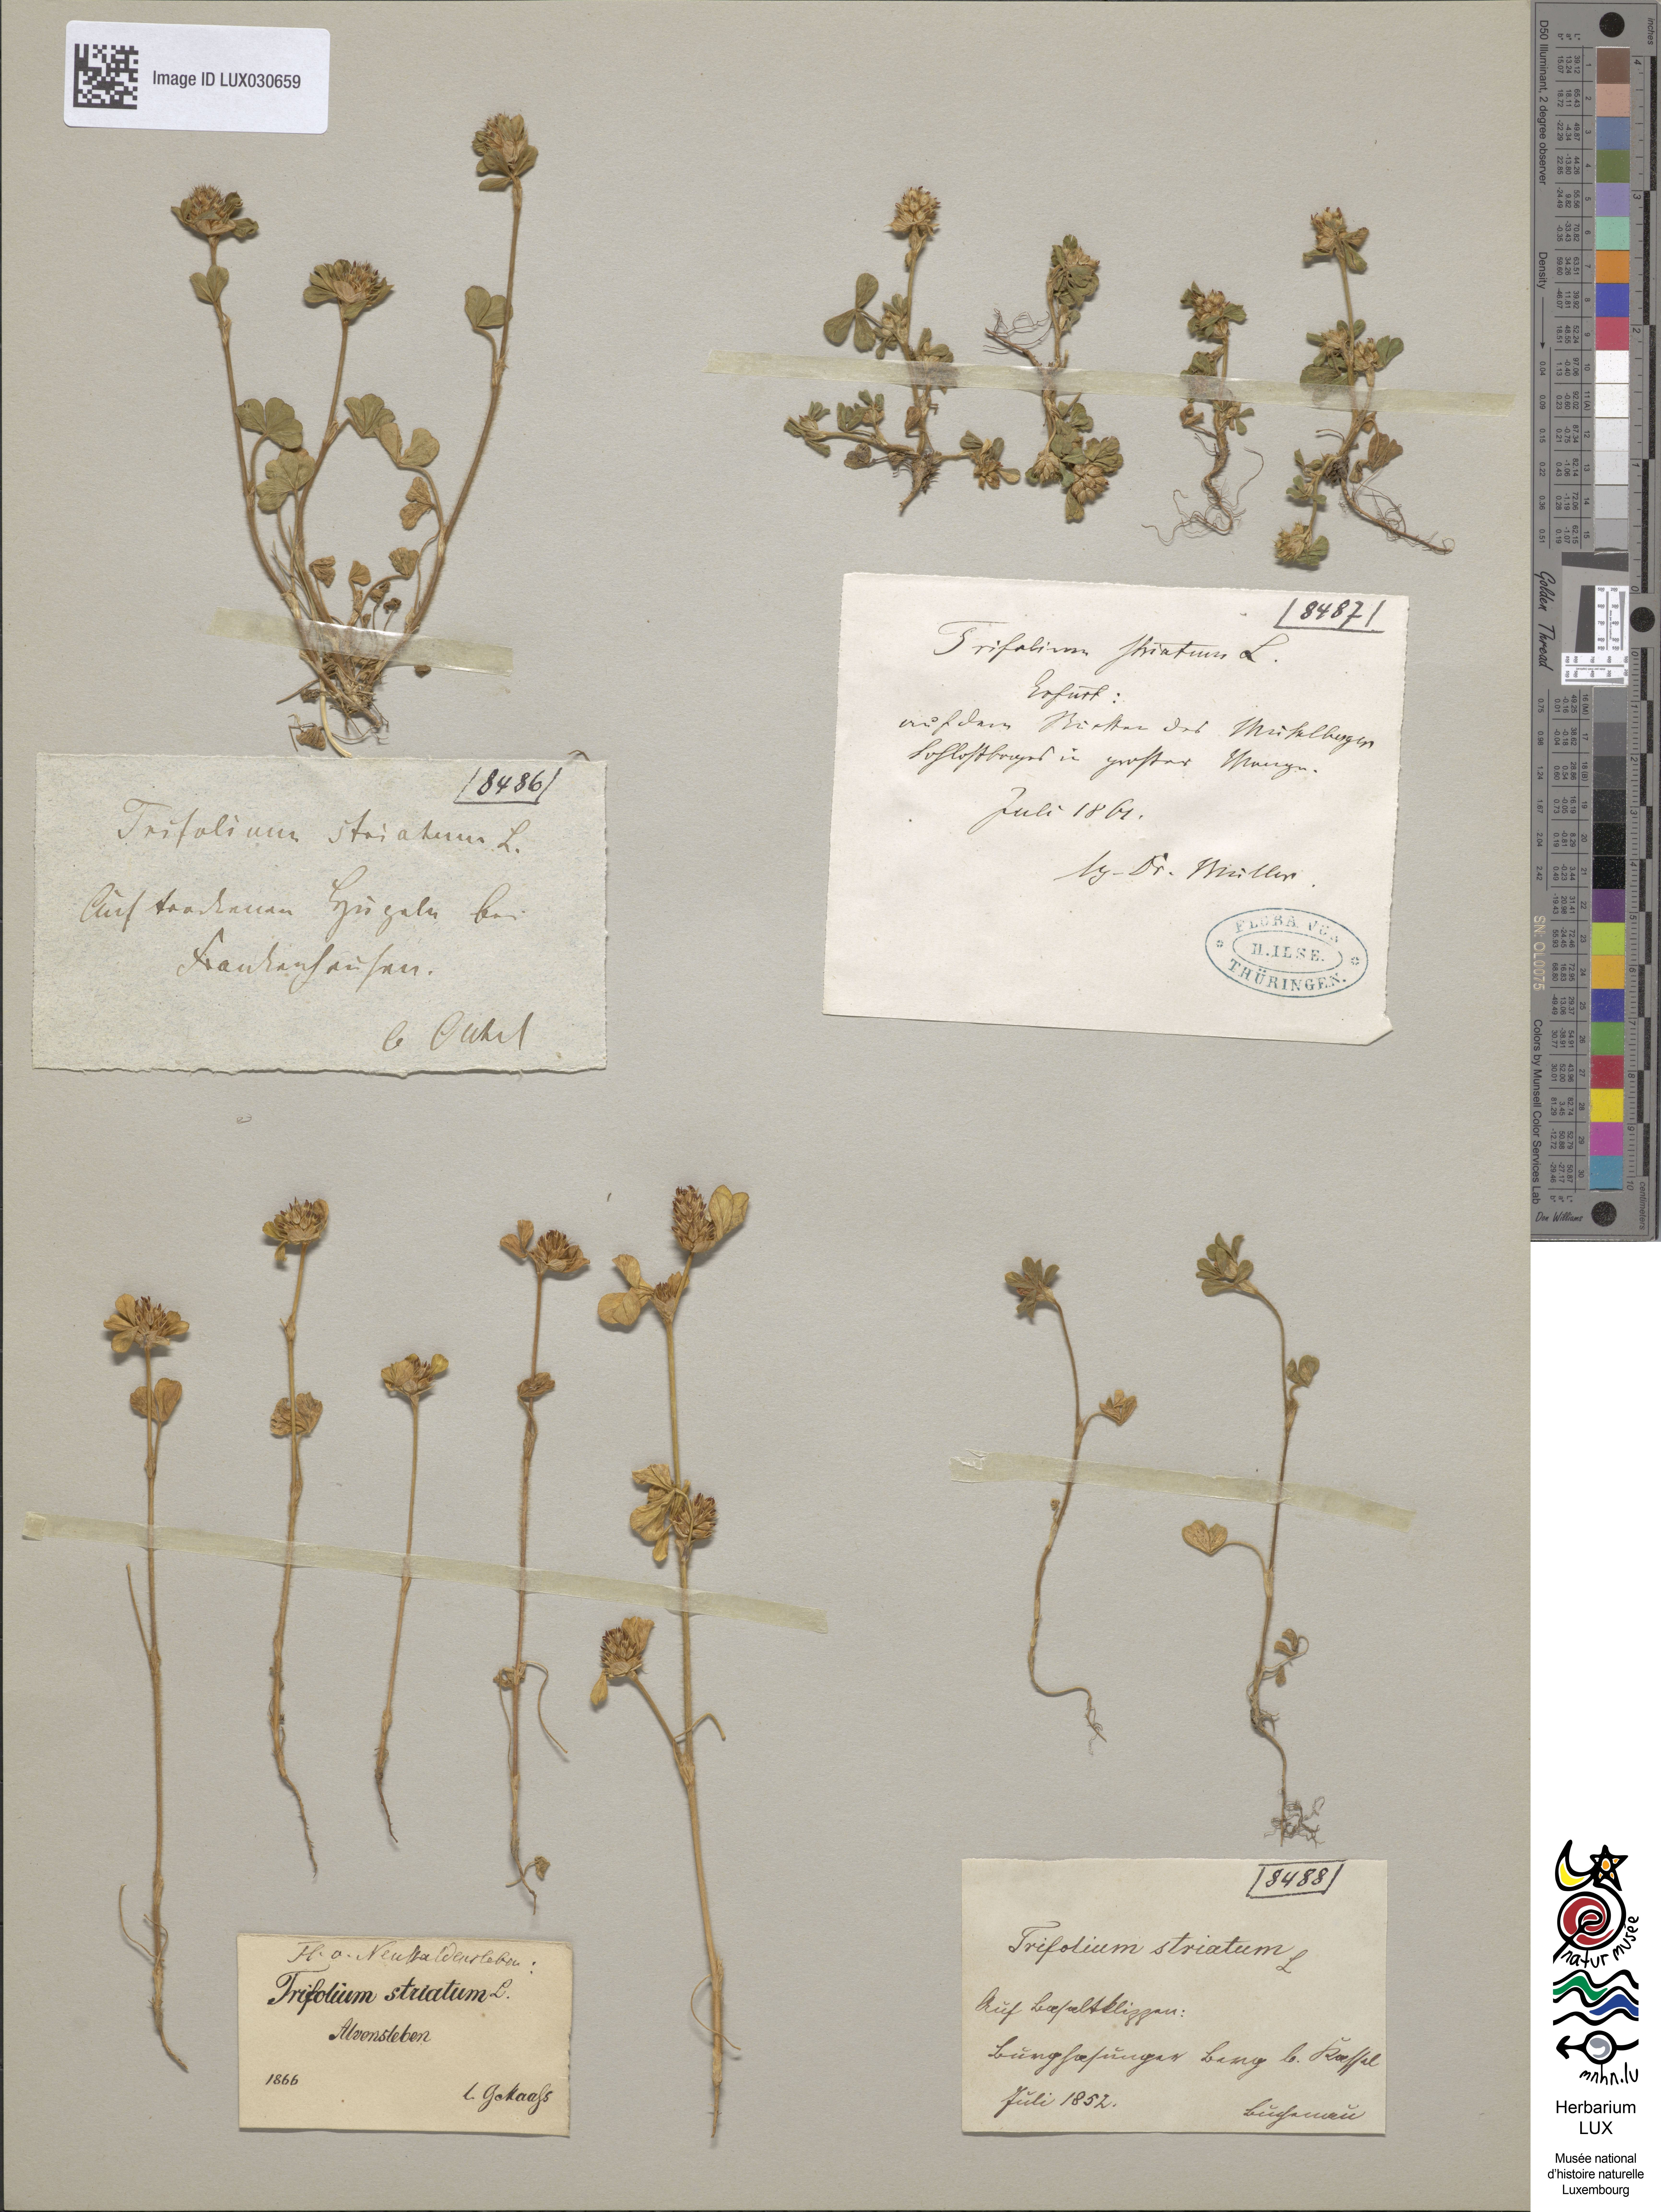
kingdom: Plantae
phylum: Tracheophyta
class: Magnoliopsida
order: Fabales
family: Fabaceae
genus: Trifolium
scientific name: Trifolium striatum
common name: Knotted clover
